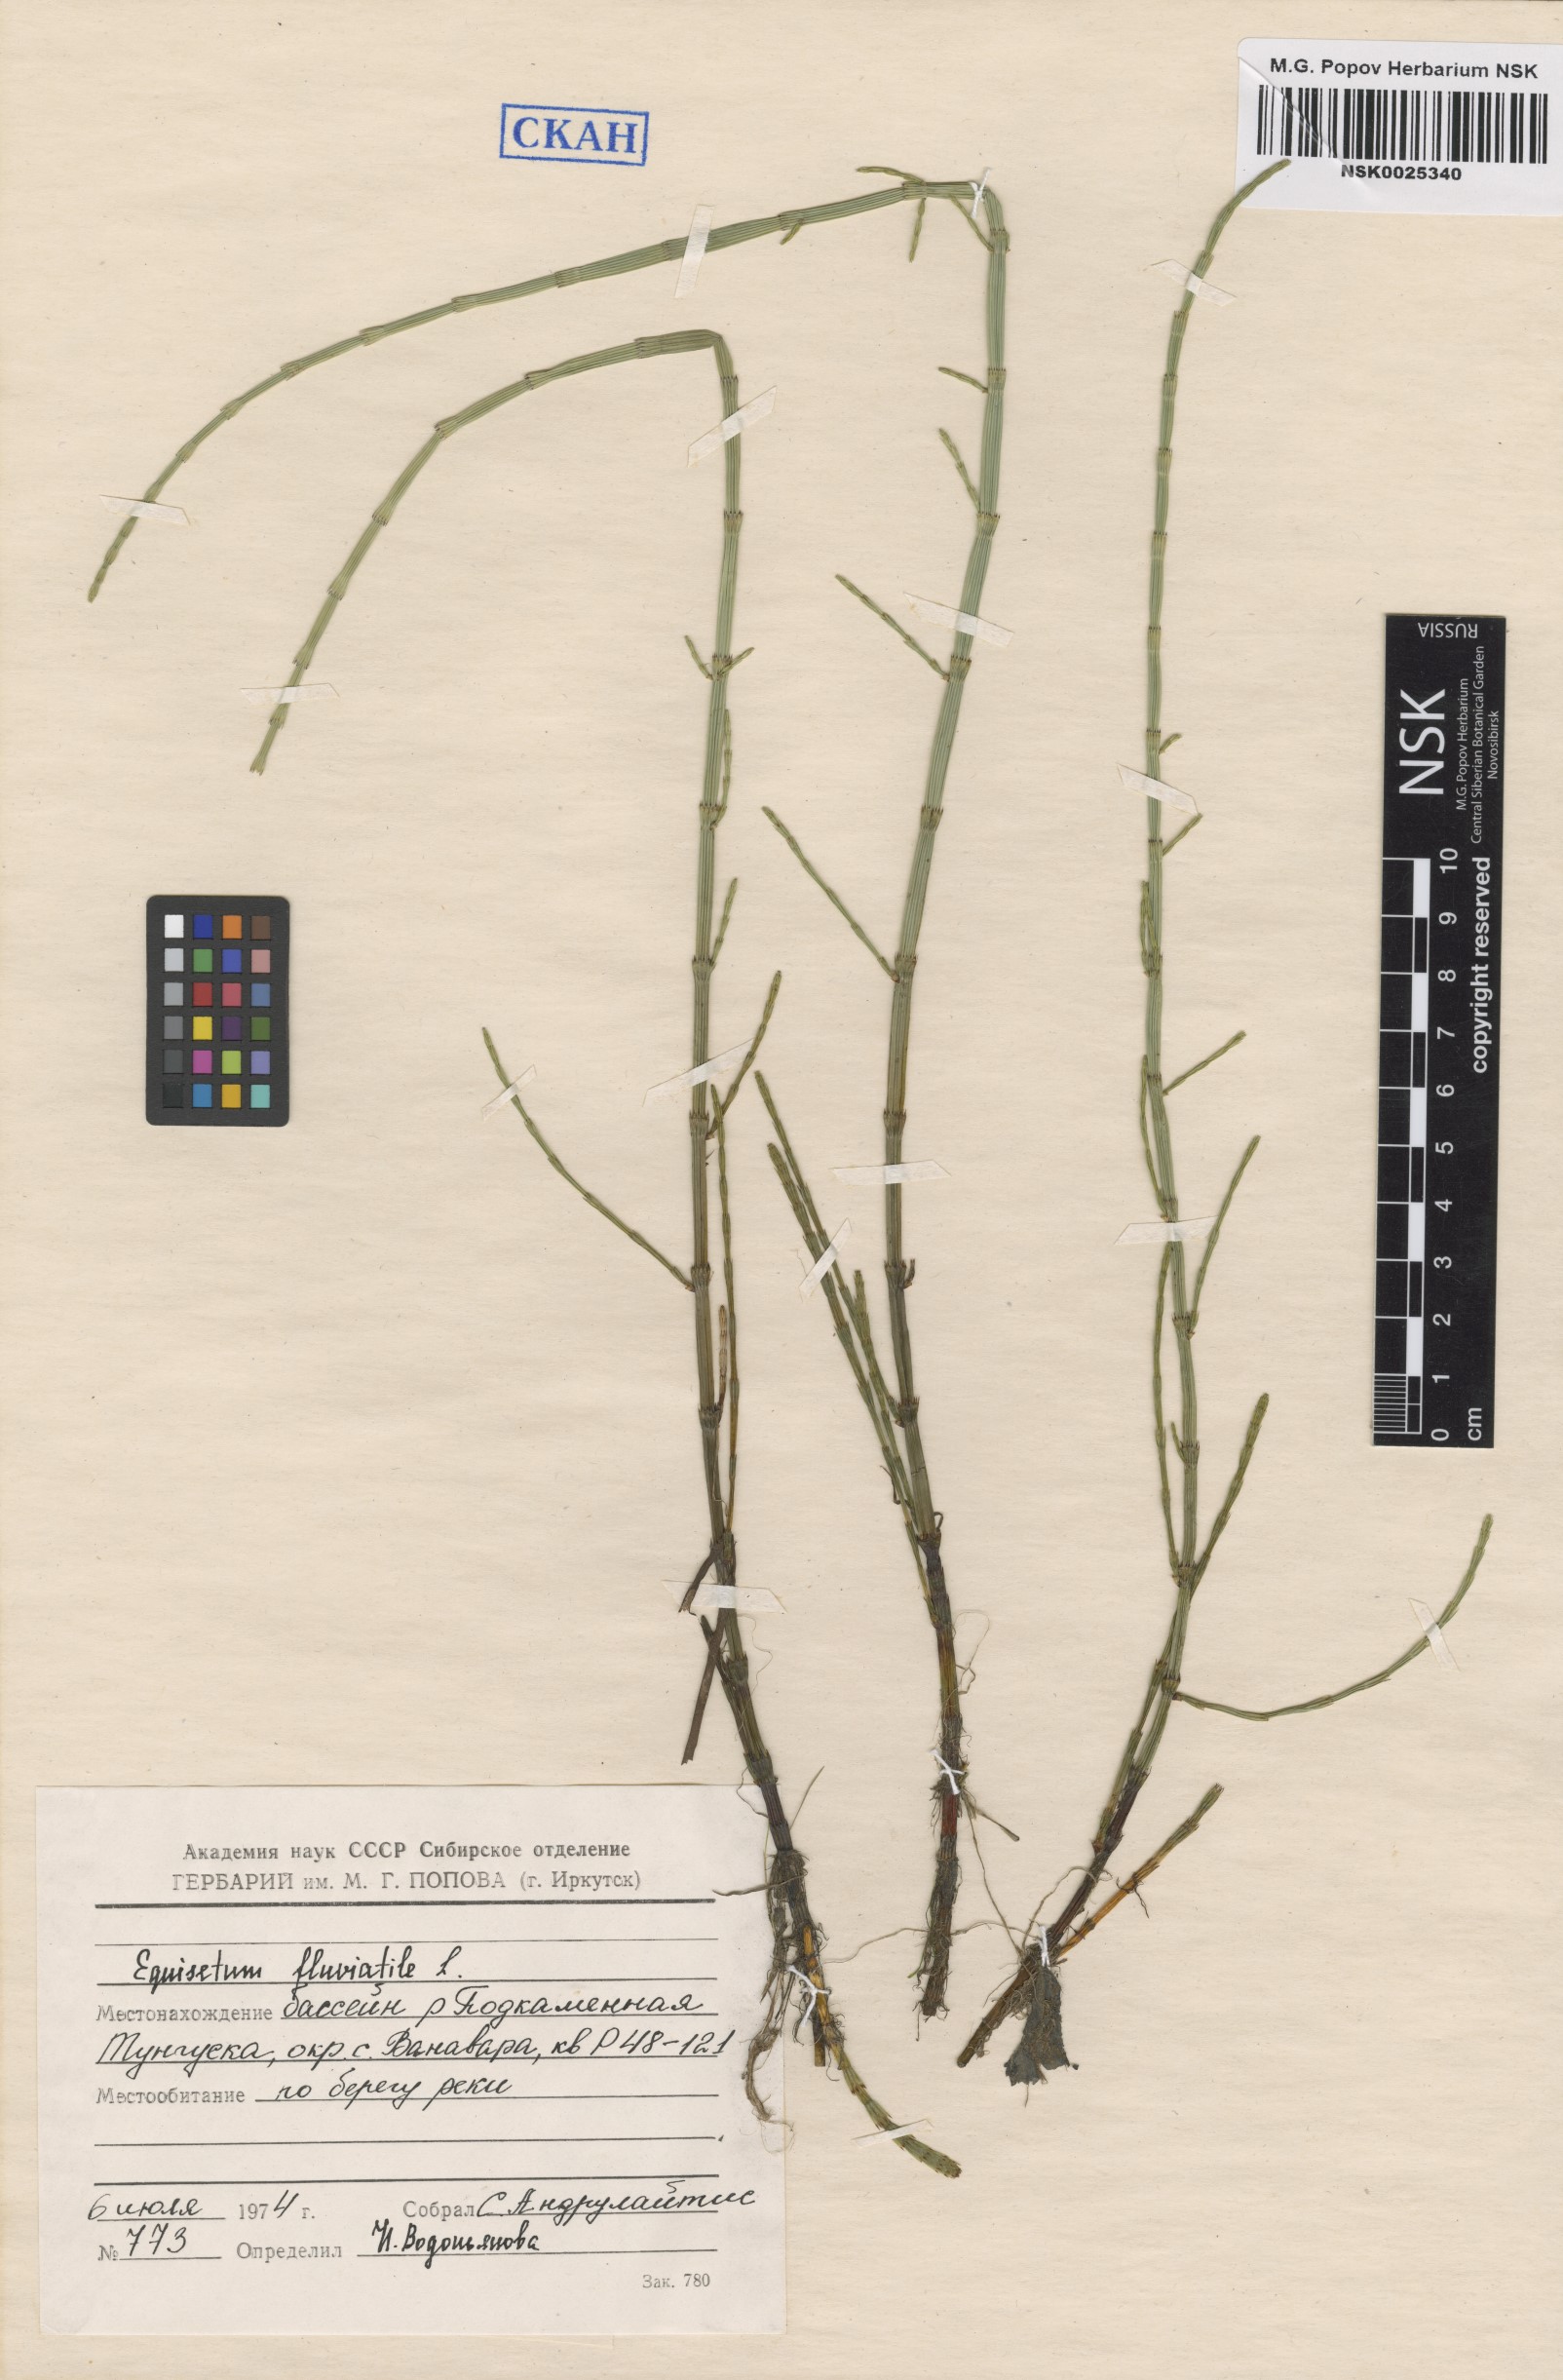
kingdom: Plantae
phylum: Tracheophyta
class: Polypodiopsida
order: Equisetales
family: Equisetaceae
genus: Equisetum
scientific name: Equisetum fluviatile
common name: Water horsetail
